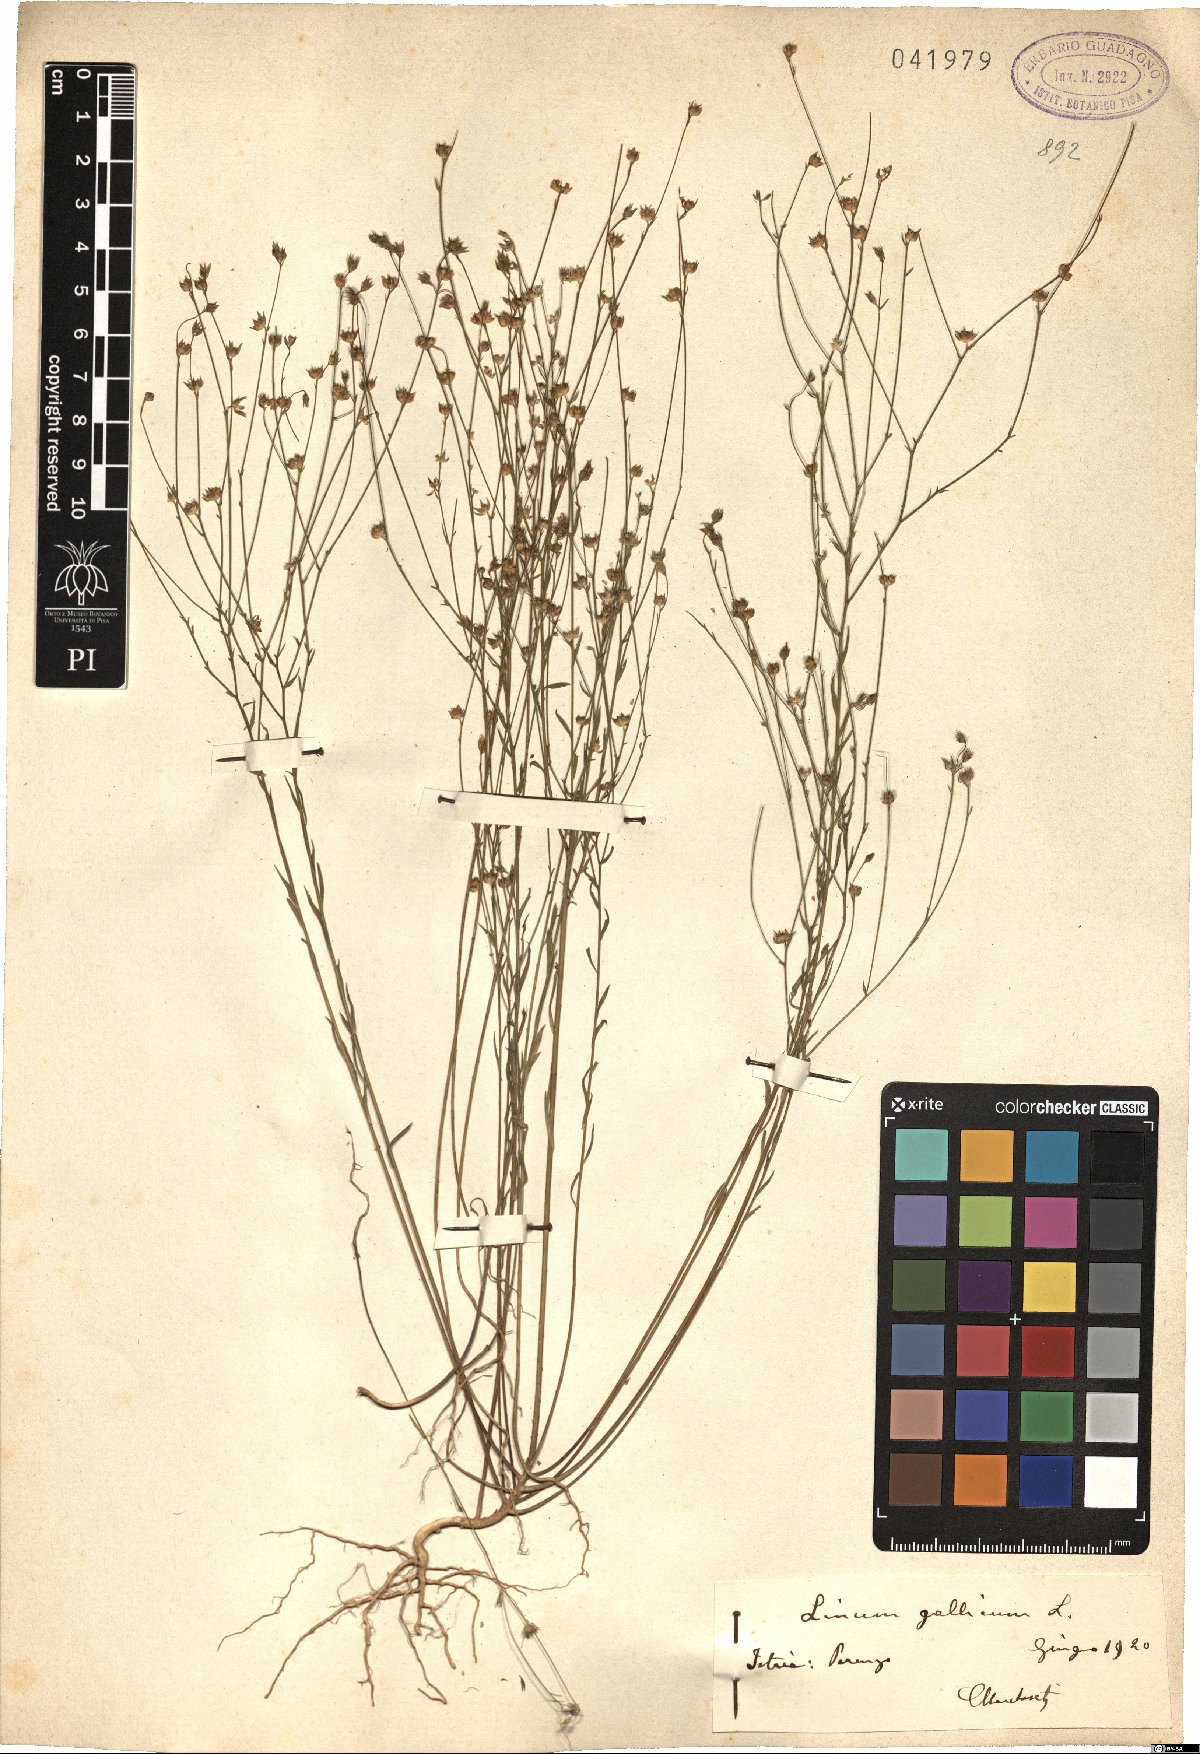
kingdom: Plantae
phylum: Tracheophyta
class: Magnoliopsida
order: Malpighiales
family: Linaceae
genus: Linum
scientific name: Linum trigynum
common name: French flax
